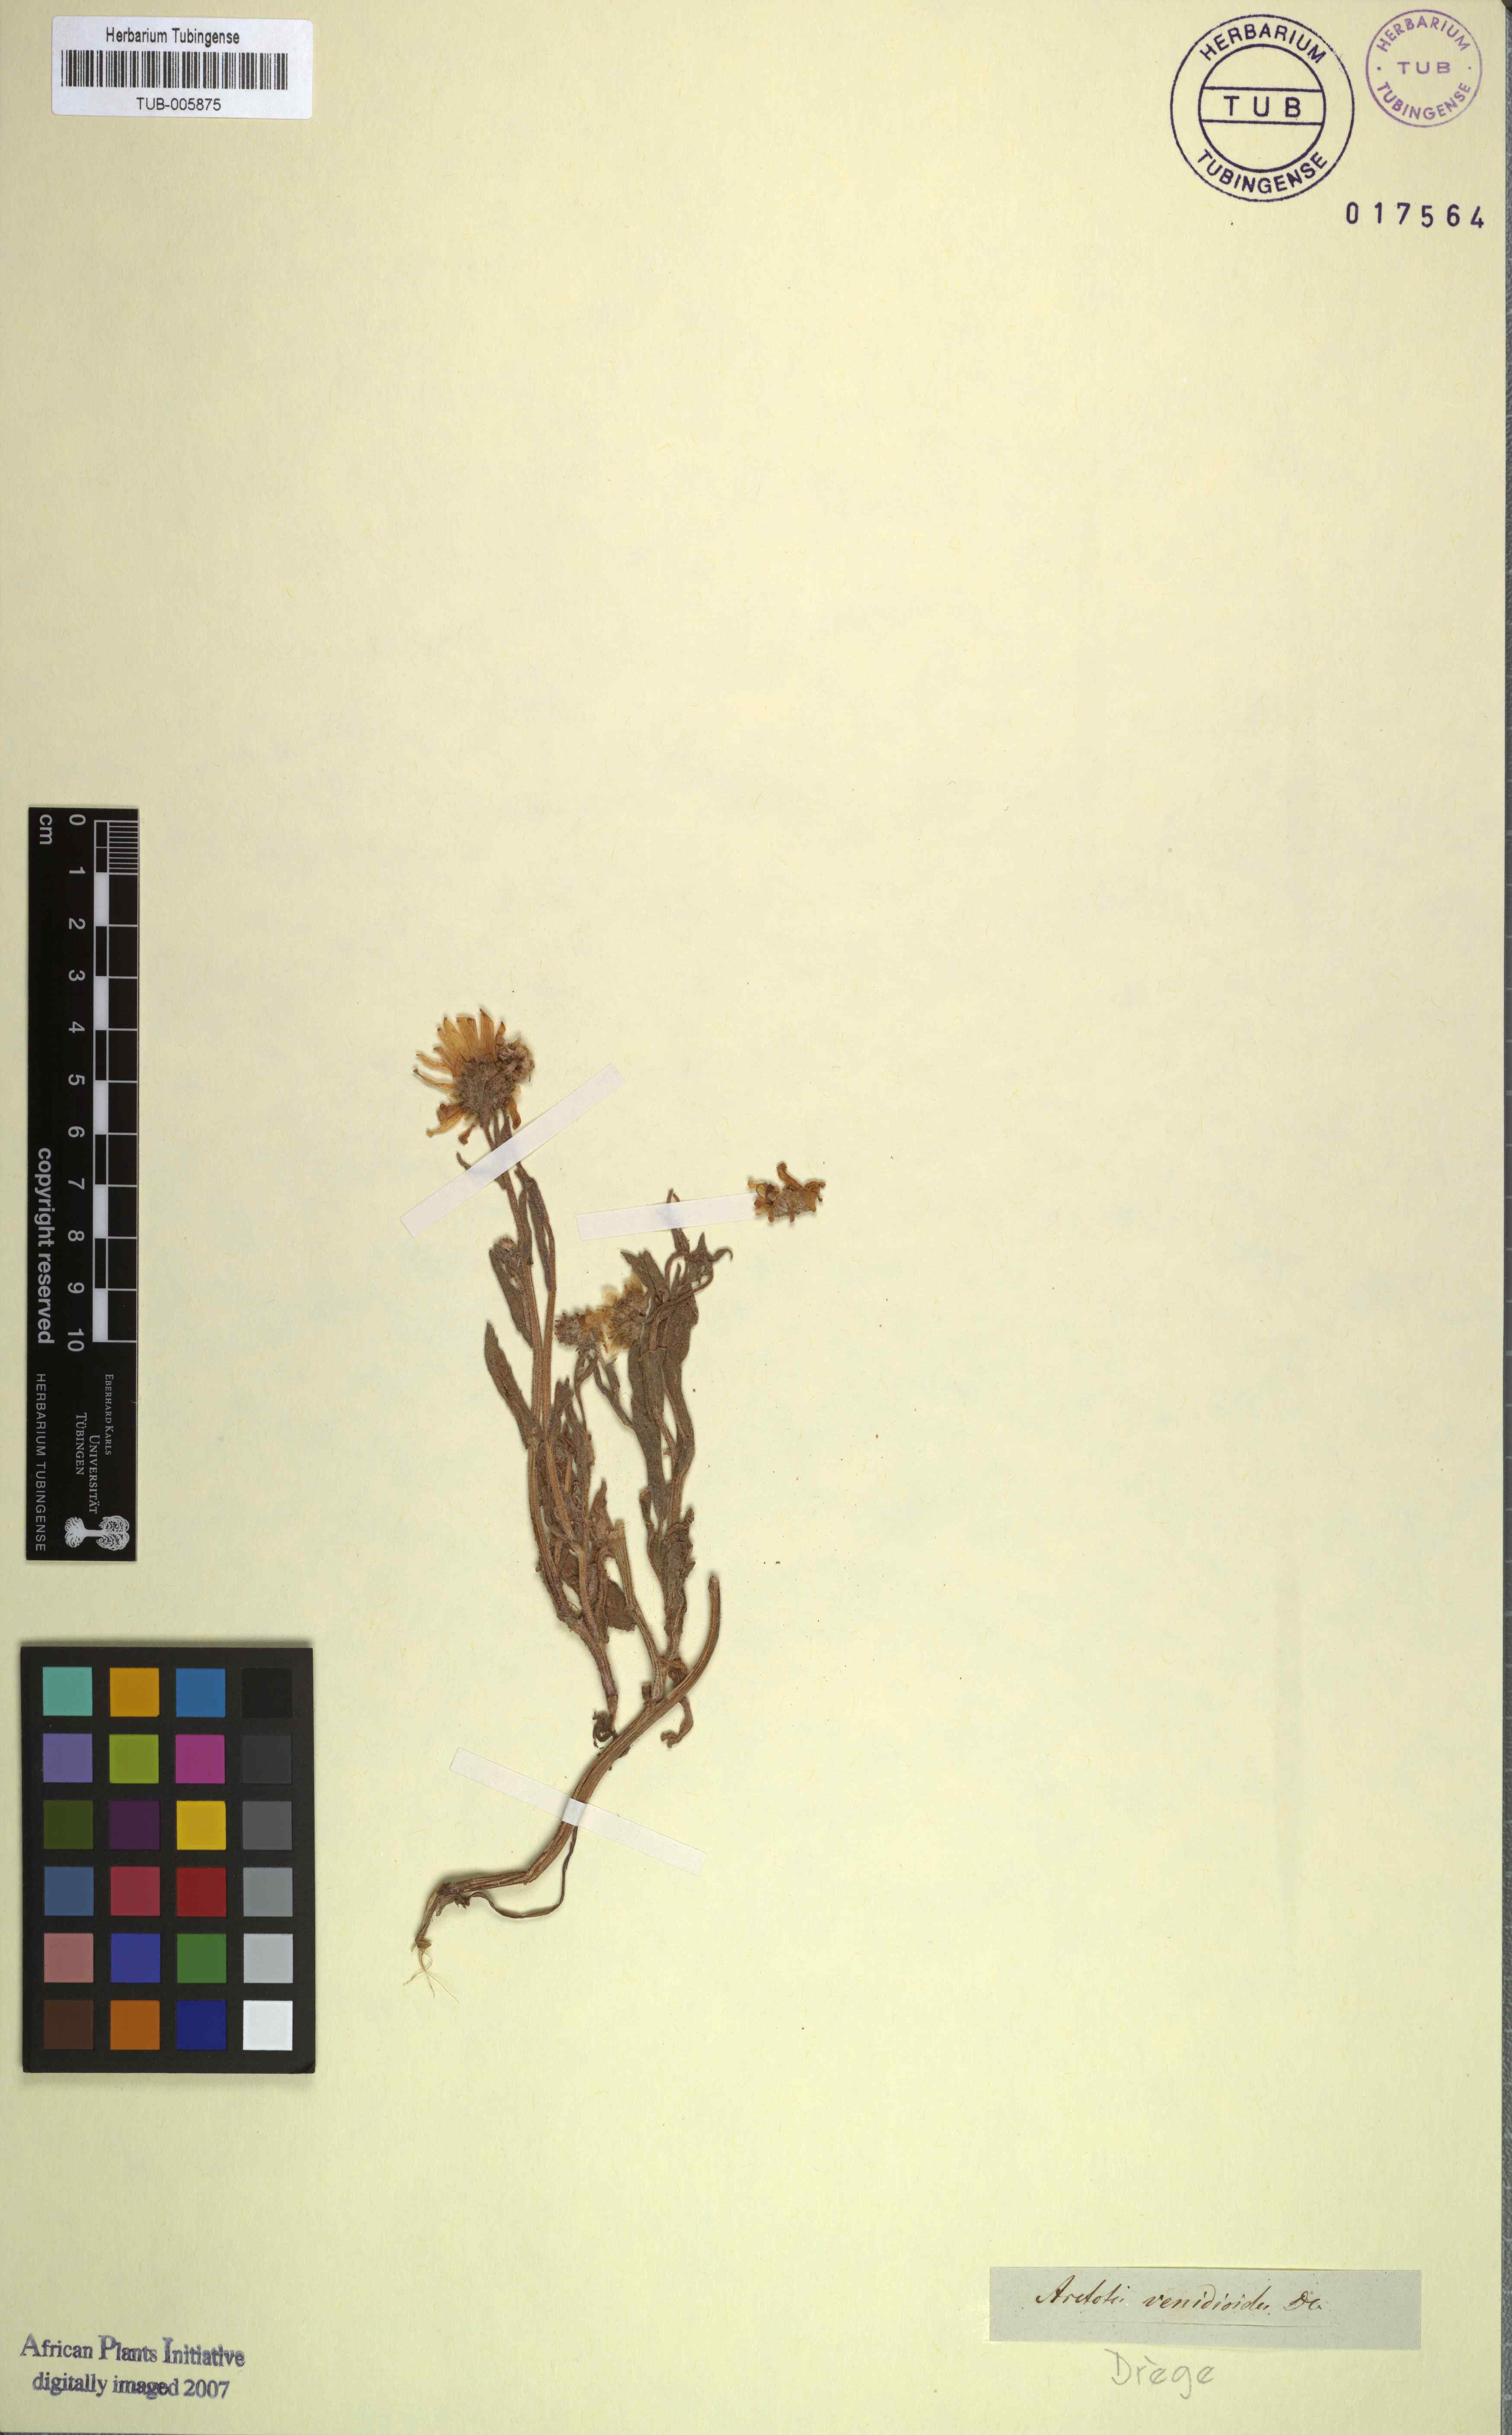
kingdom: Plantae
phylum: Tracheophyta
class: Magnoliopsida
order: Asterales
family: Asteraceae
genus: Arctotis
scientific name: Arctotis venidioides
